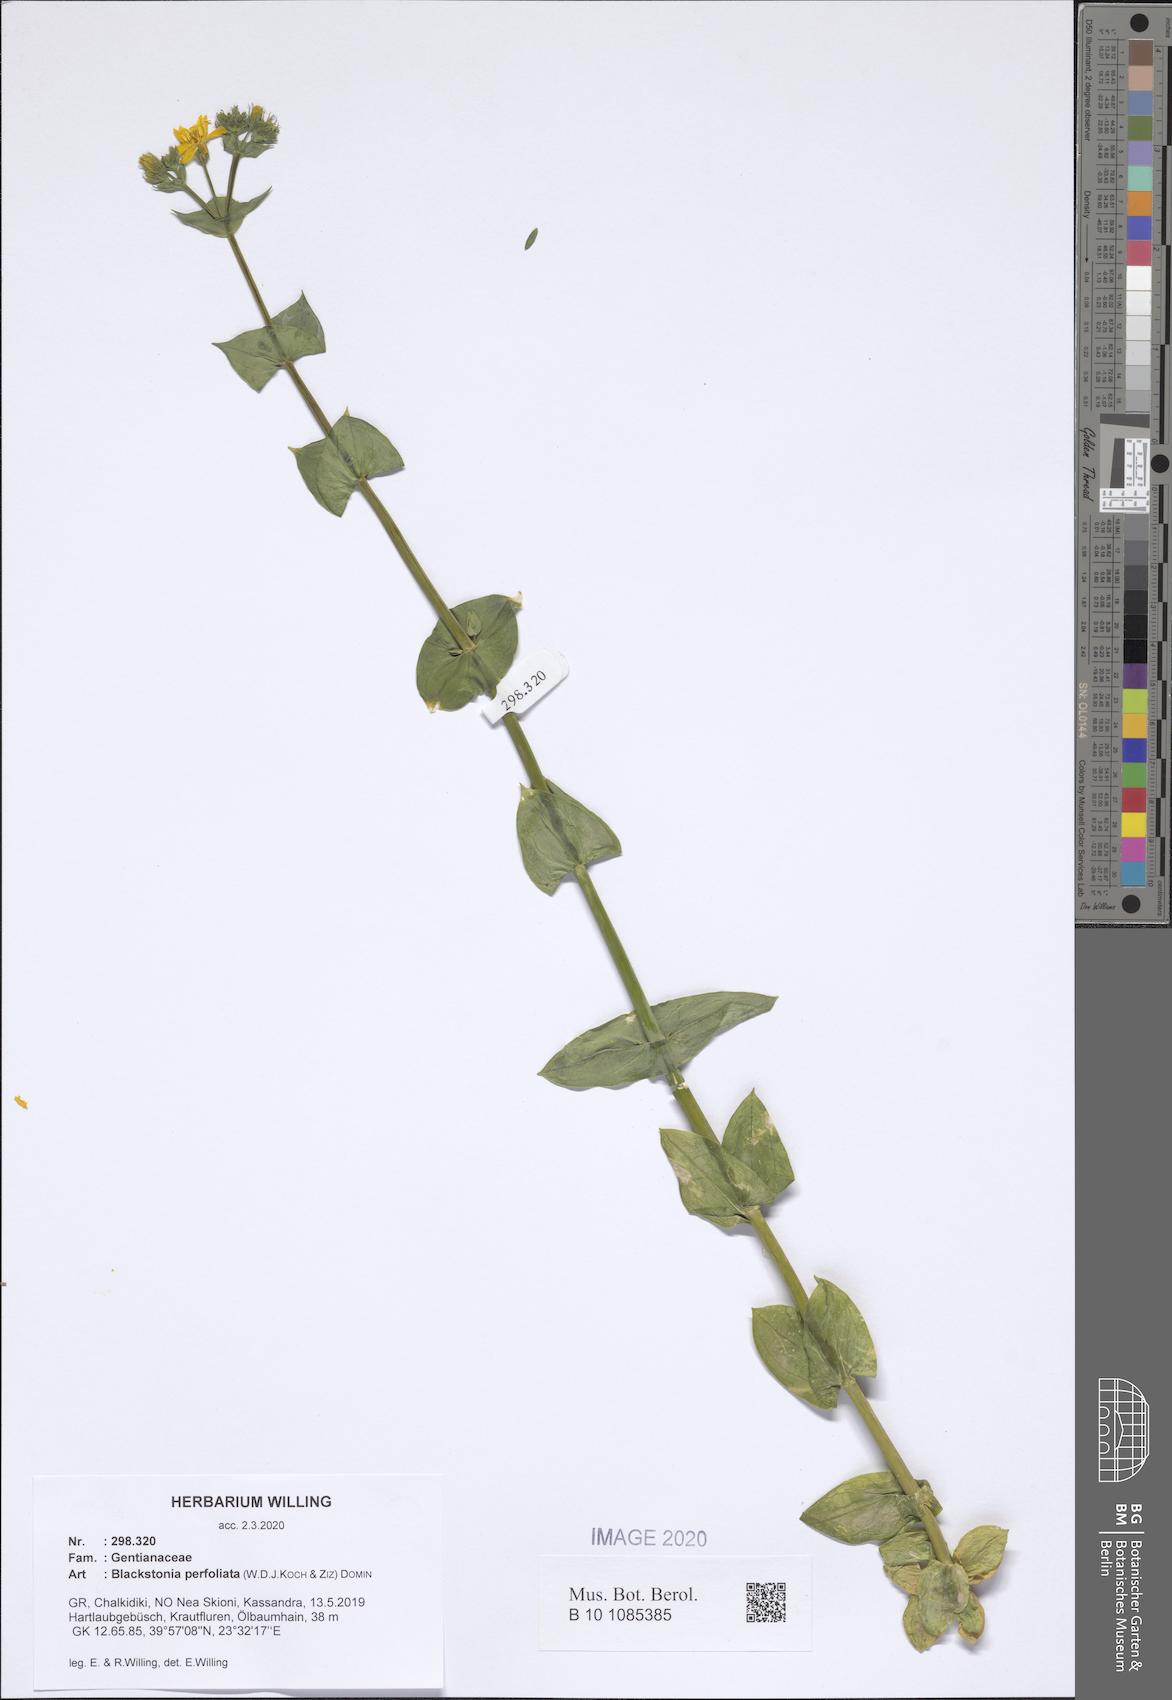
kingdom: Plantae
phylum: Tracheophyta
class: Magnoliopsida
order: Gentianales
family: Gentianaceae
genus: Blackstonia
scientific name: Blackstonia perfoliata
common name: Yellow-wort
